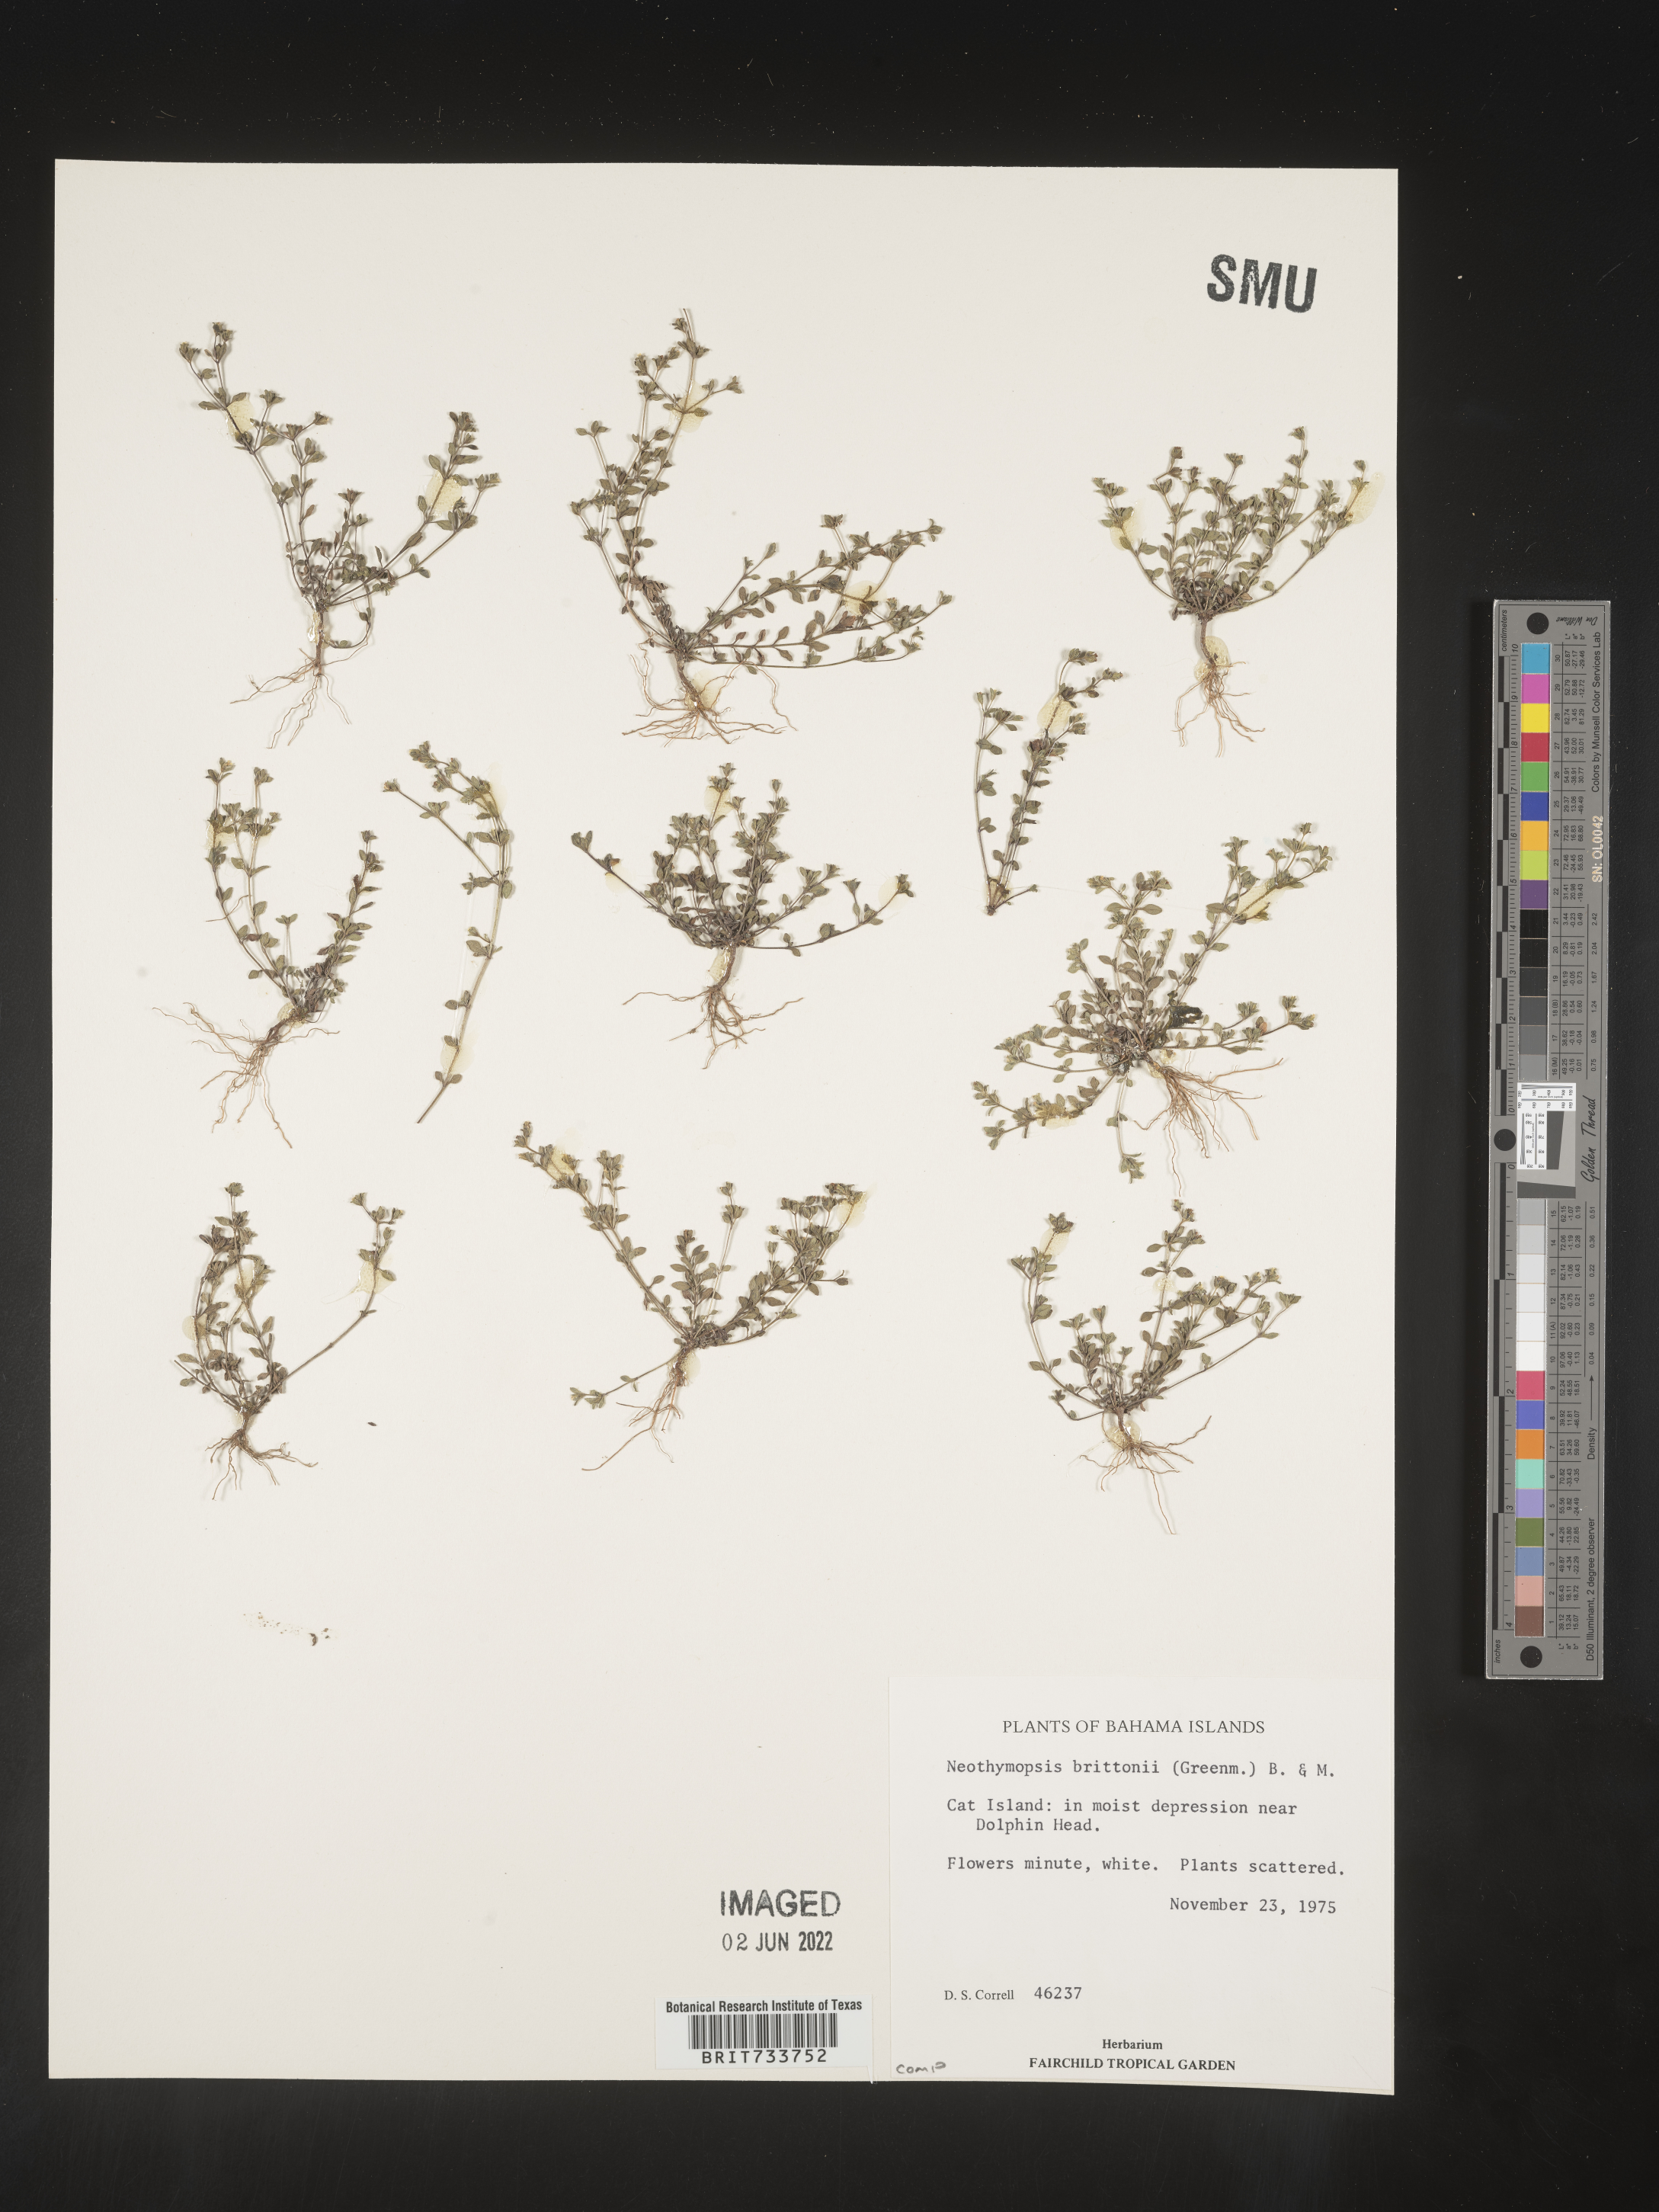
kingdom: Plantae
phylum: Tracheophyta
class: Magnoliopsida
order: Asterales
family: Asteraceae
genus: Thymopsis
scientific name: Thymopsis brittonii
